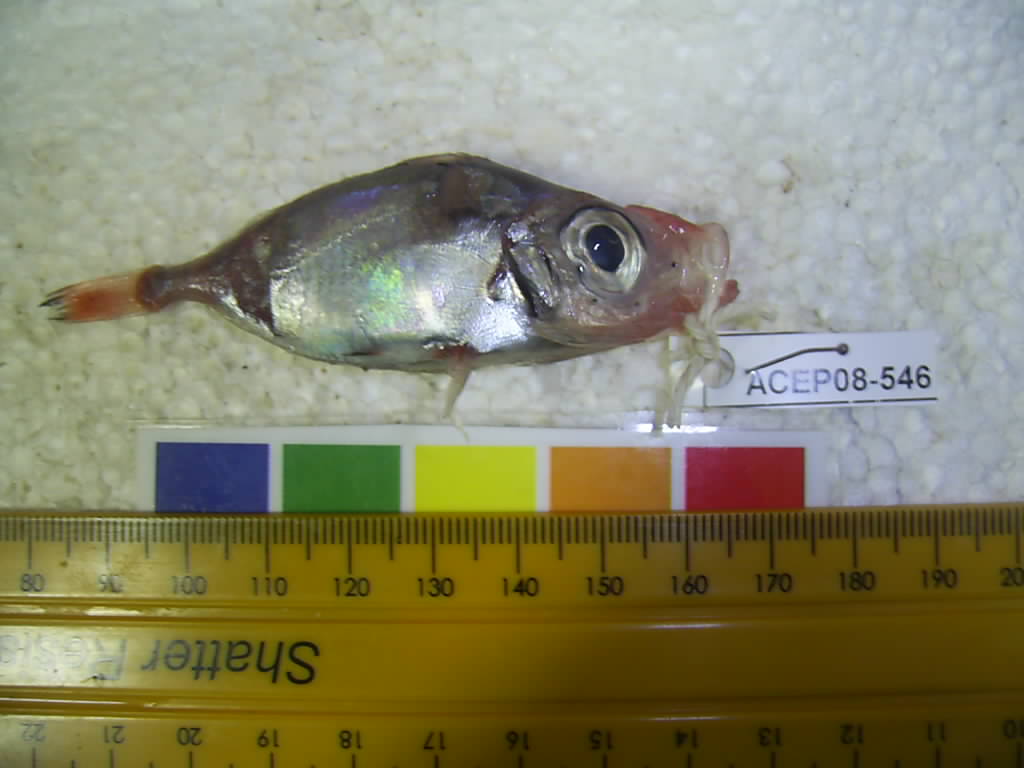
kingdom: Animalia
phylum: Chordata
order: Zeiformes
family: Zeniontidae
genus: Zenion
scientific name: Zenion hololepis
